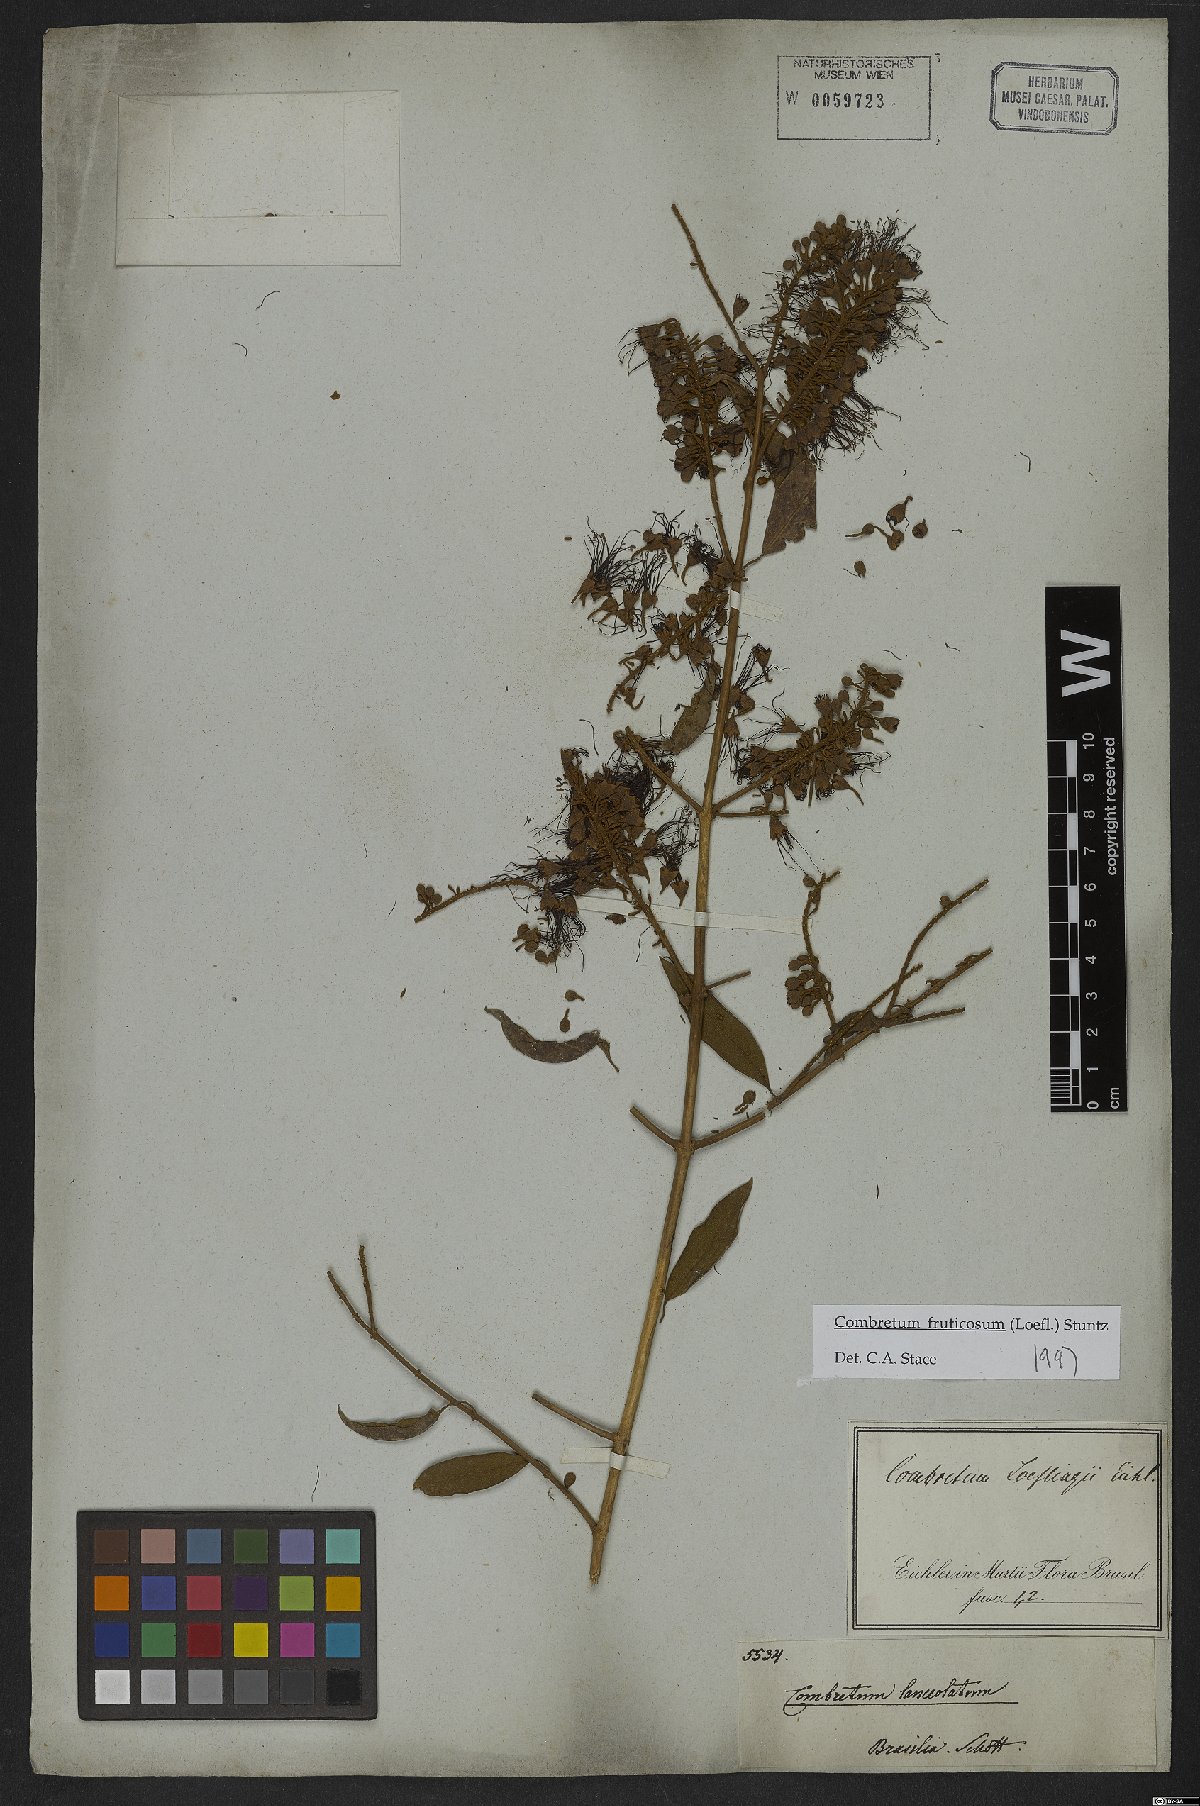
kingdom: Plantae
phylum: Tracheophyta
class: Magnoliopsida
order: Myrtales
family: Combretaceae
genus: Combretum
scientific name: Combretum fruticosum
